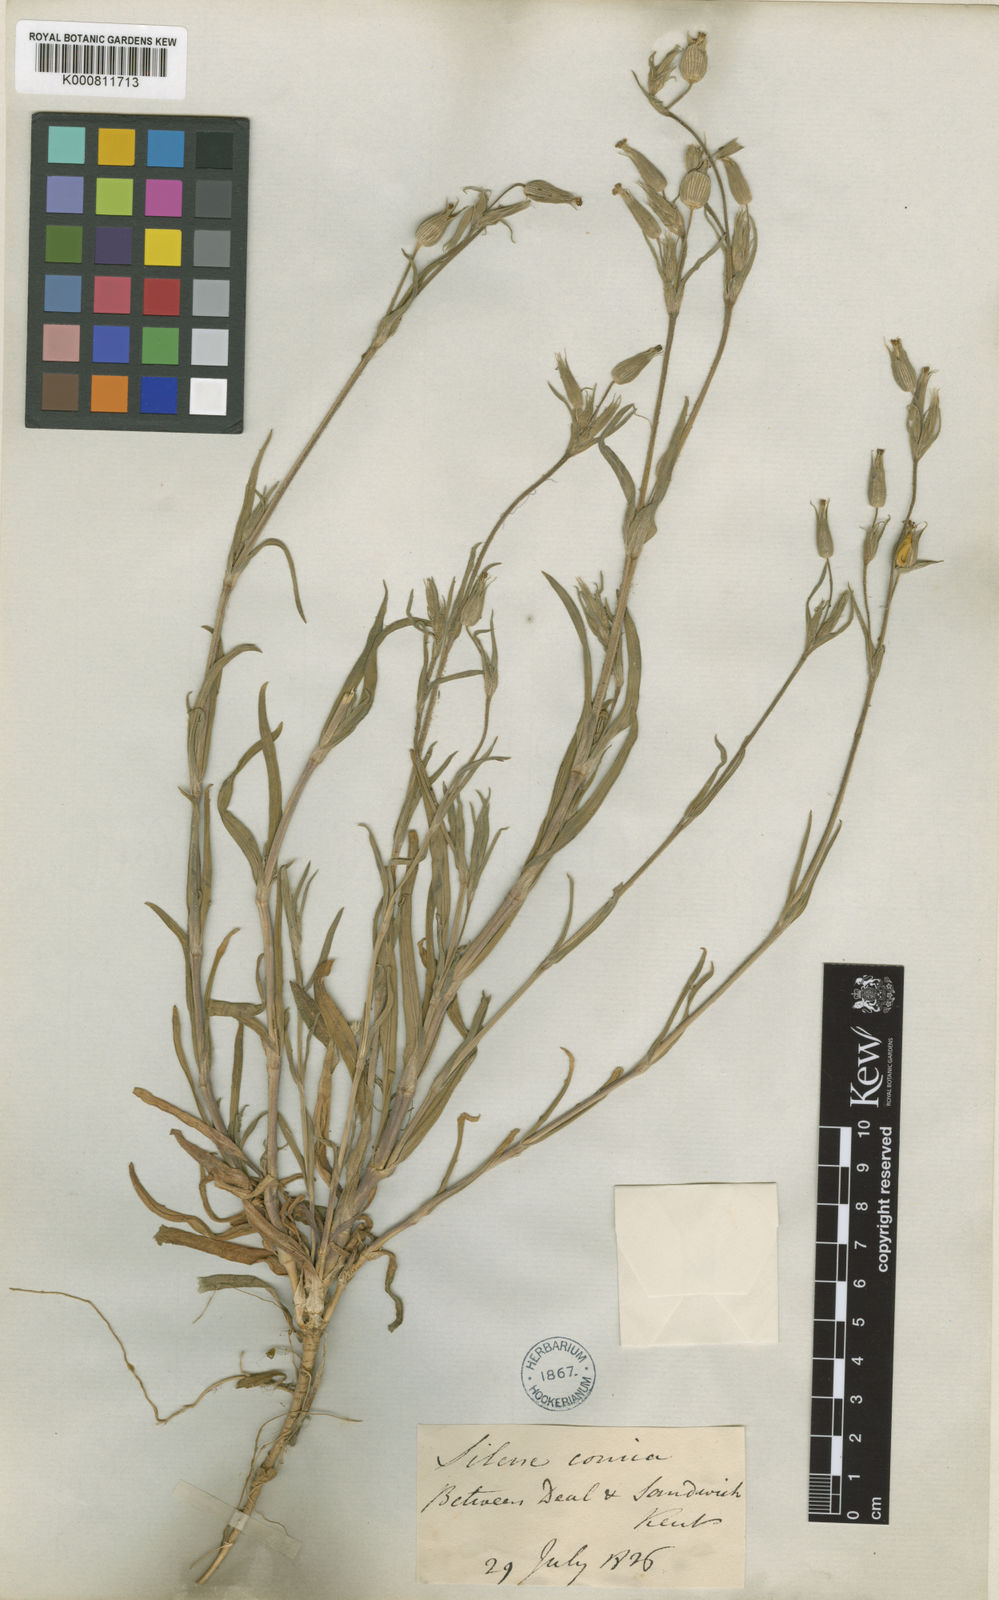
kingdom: Plantae
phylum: Tracheophyta
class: Magnoliopsida
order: Caryophyllales
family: Caryophyllaceae
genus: Silene
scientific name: Silene conica
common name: Sand catchfly
